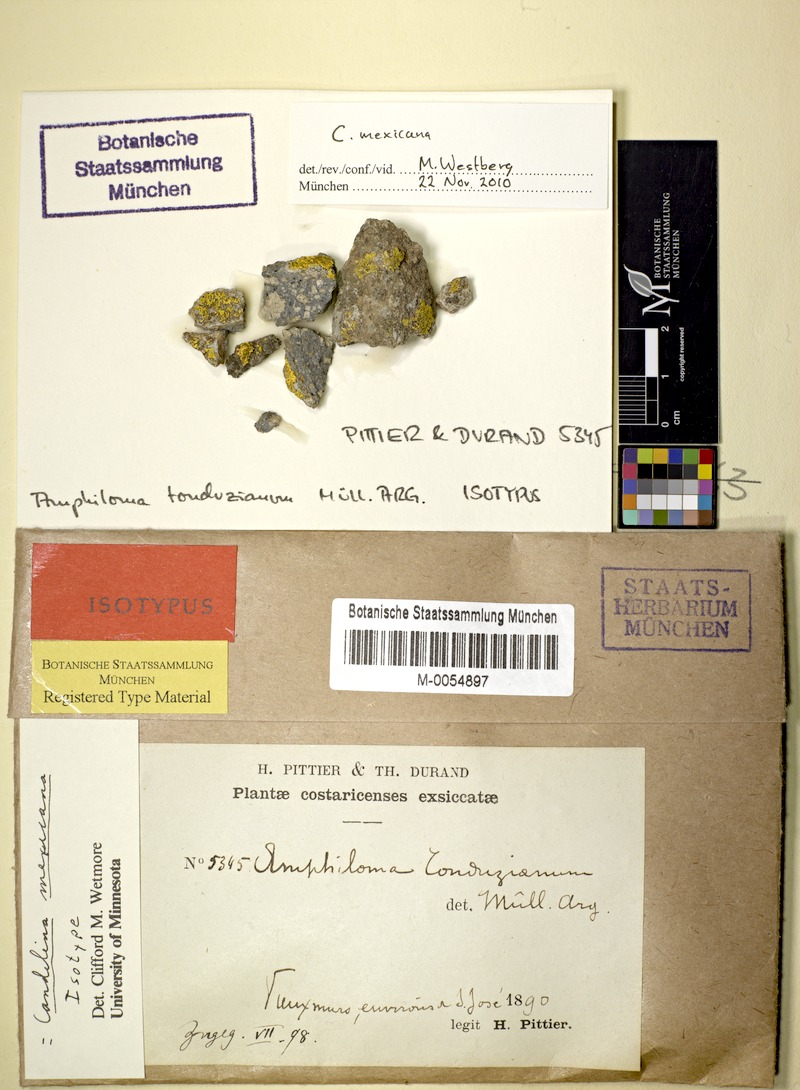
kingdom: Fungi
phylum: Ascomycota
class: Candelariomycetes
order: Candelariales
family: Candelariaceae
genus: Candelina
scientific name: Candelina mexicana
